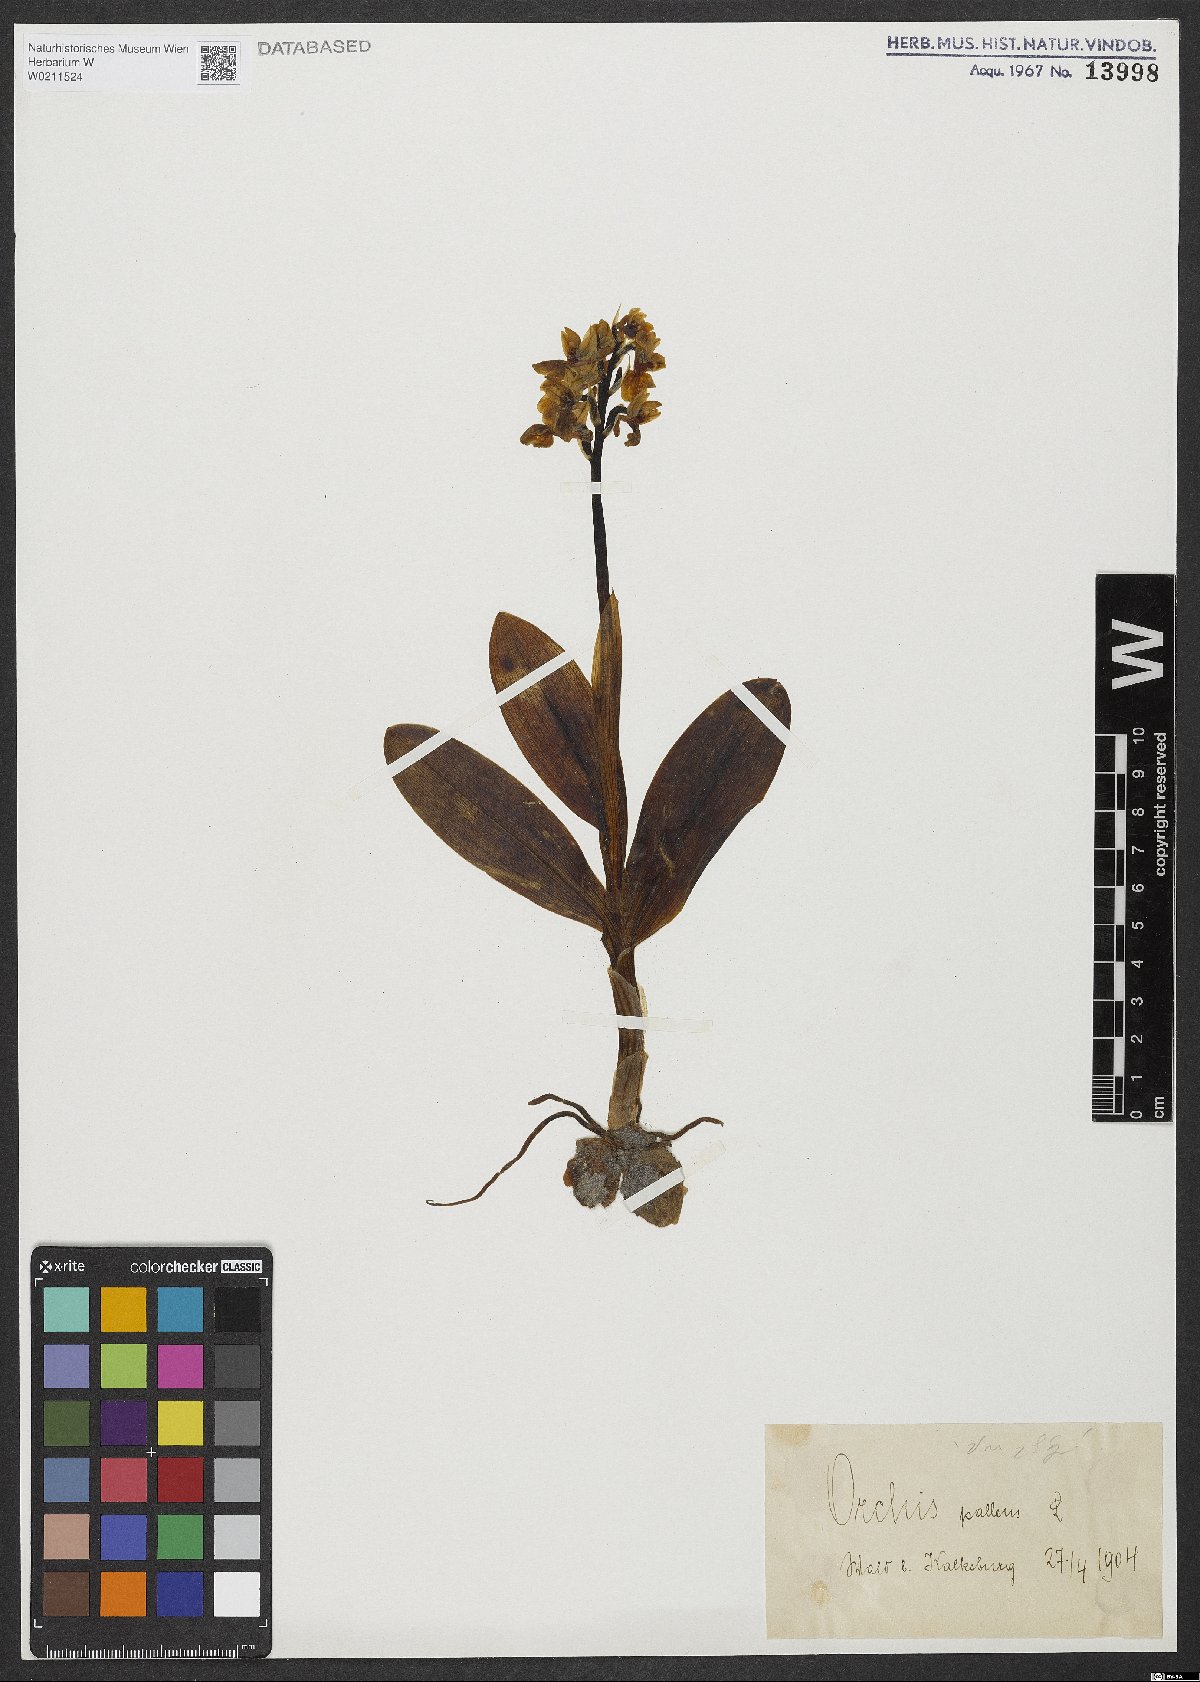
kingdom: Plantae
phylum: Tracheophyta
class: Liliopsida
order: Asparagales
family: Orchidaceae
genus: Orchis
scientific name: Orchis pallens
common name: Pale-flowered orchid
